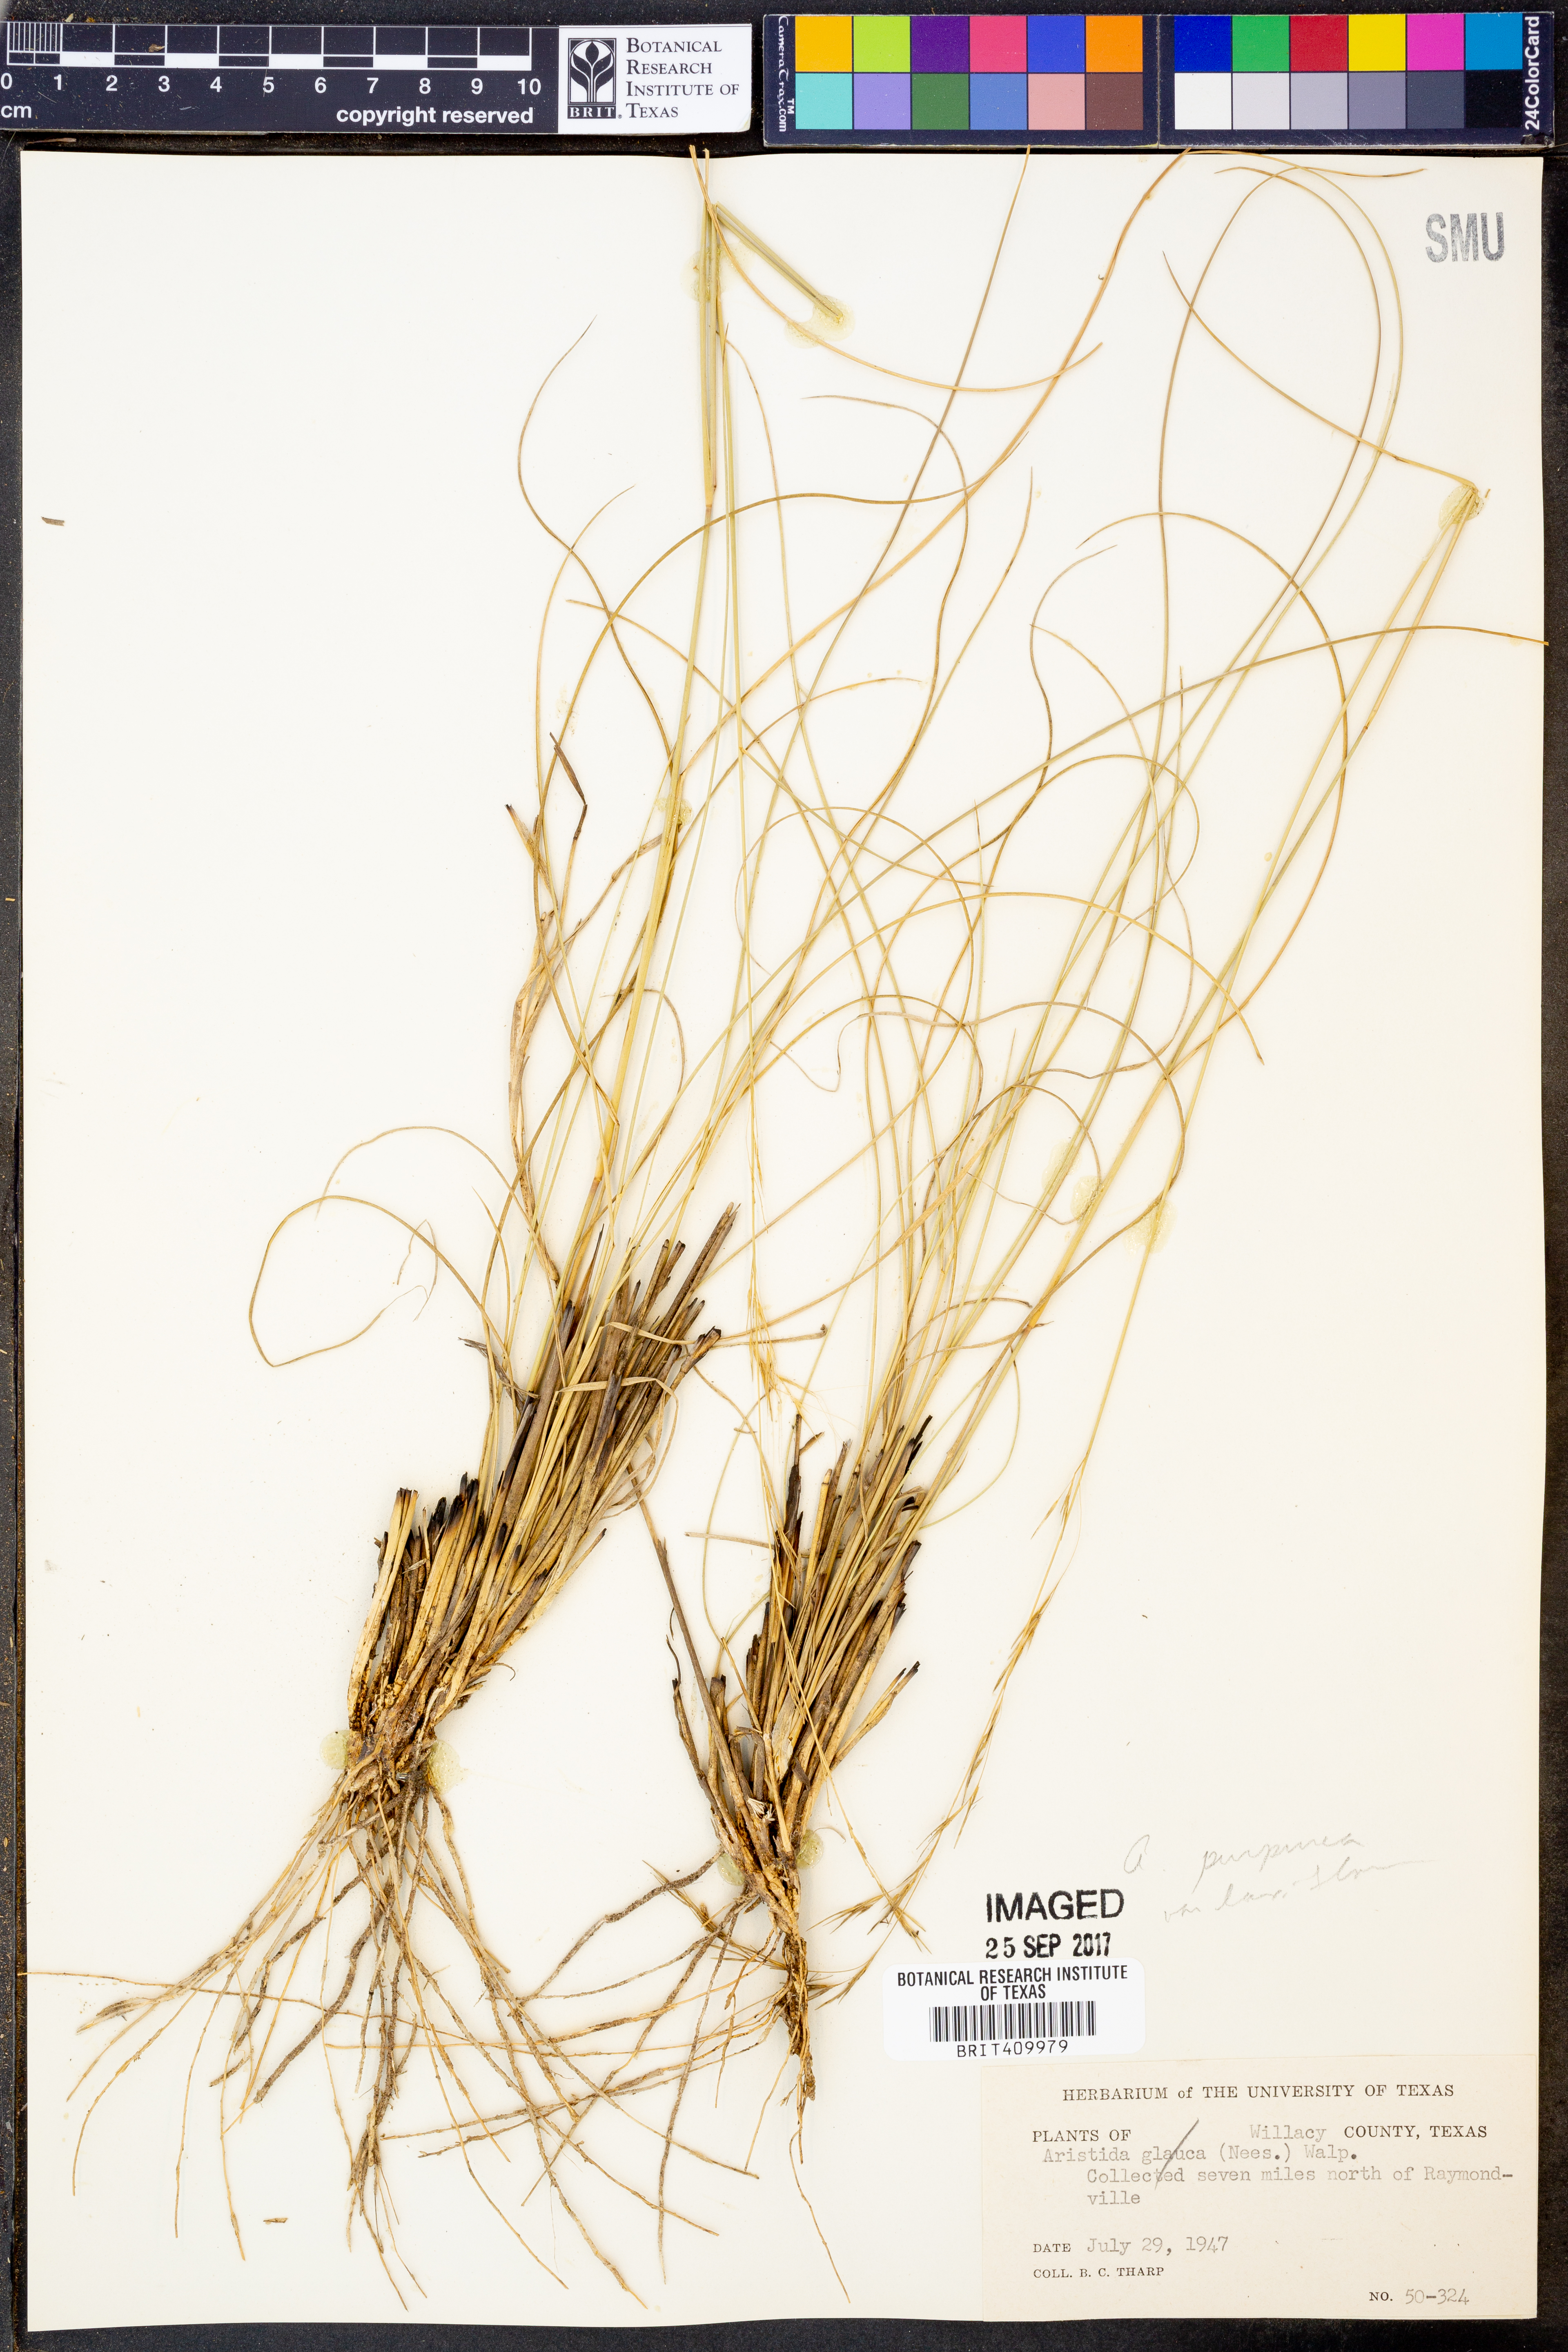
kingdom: Plantae
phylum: Tracheophyta
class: Liliopsida
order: Poales
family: Poaceae
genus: Aristida
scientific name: Aristida glauca
